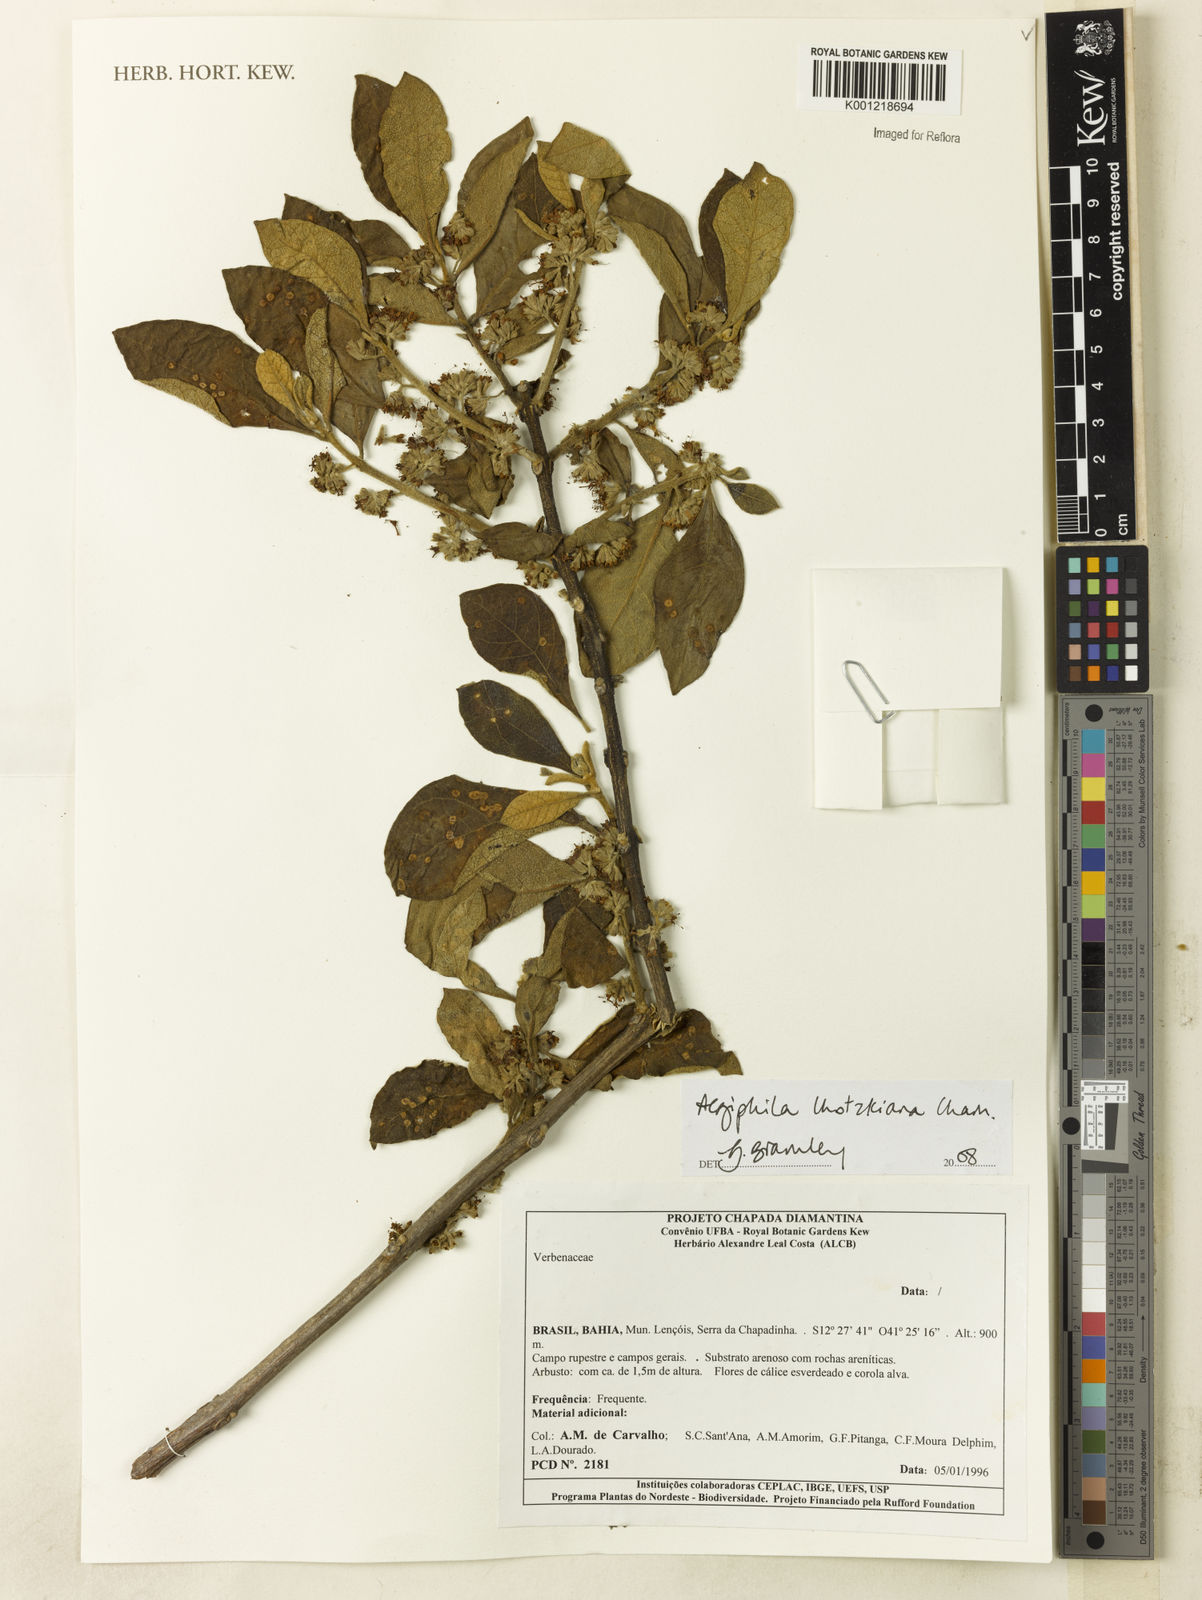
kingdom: Plantae
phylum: Tracheophyta
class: Magnoliopsida
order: Lamiales
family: Lamiaceae
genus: Aegiphila
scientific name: Aegiphila verticillata
